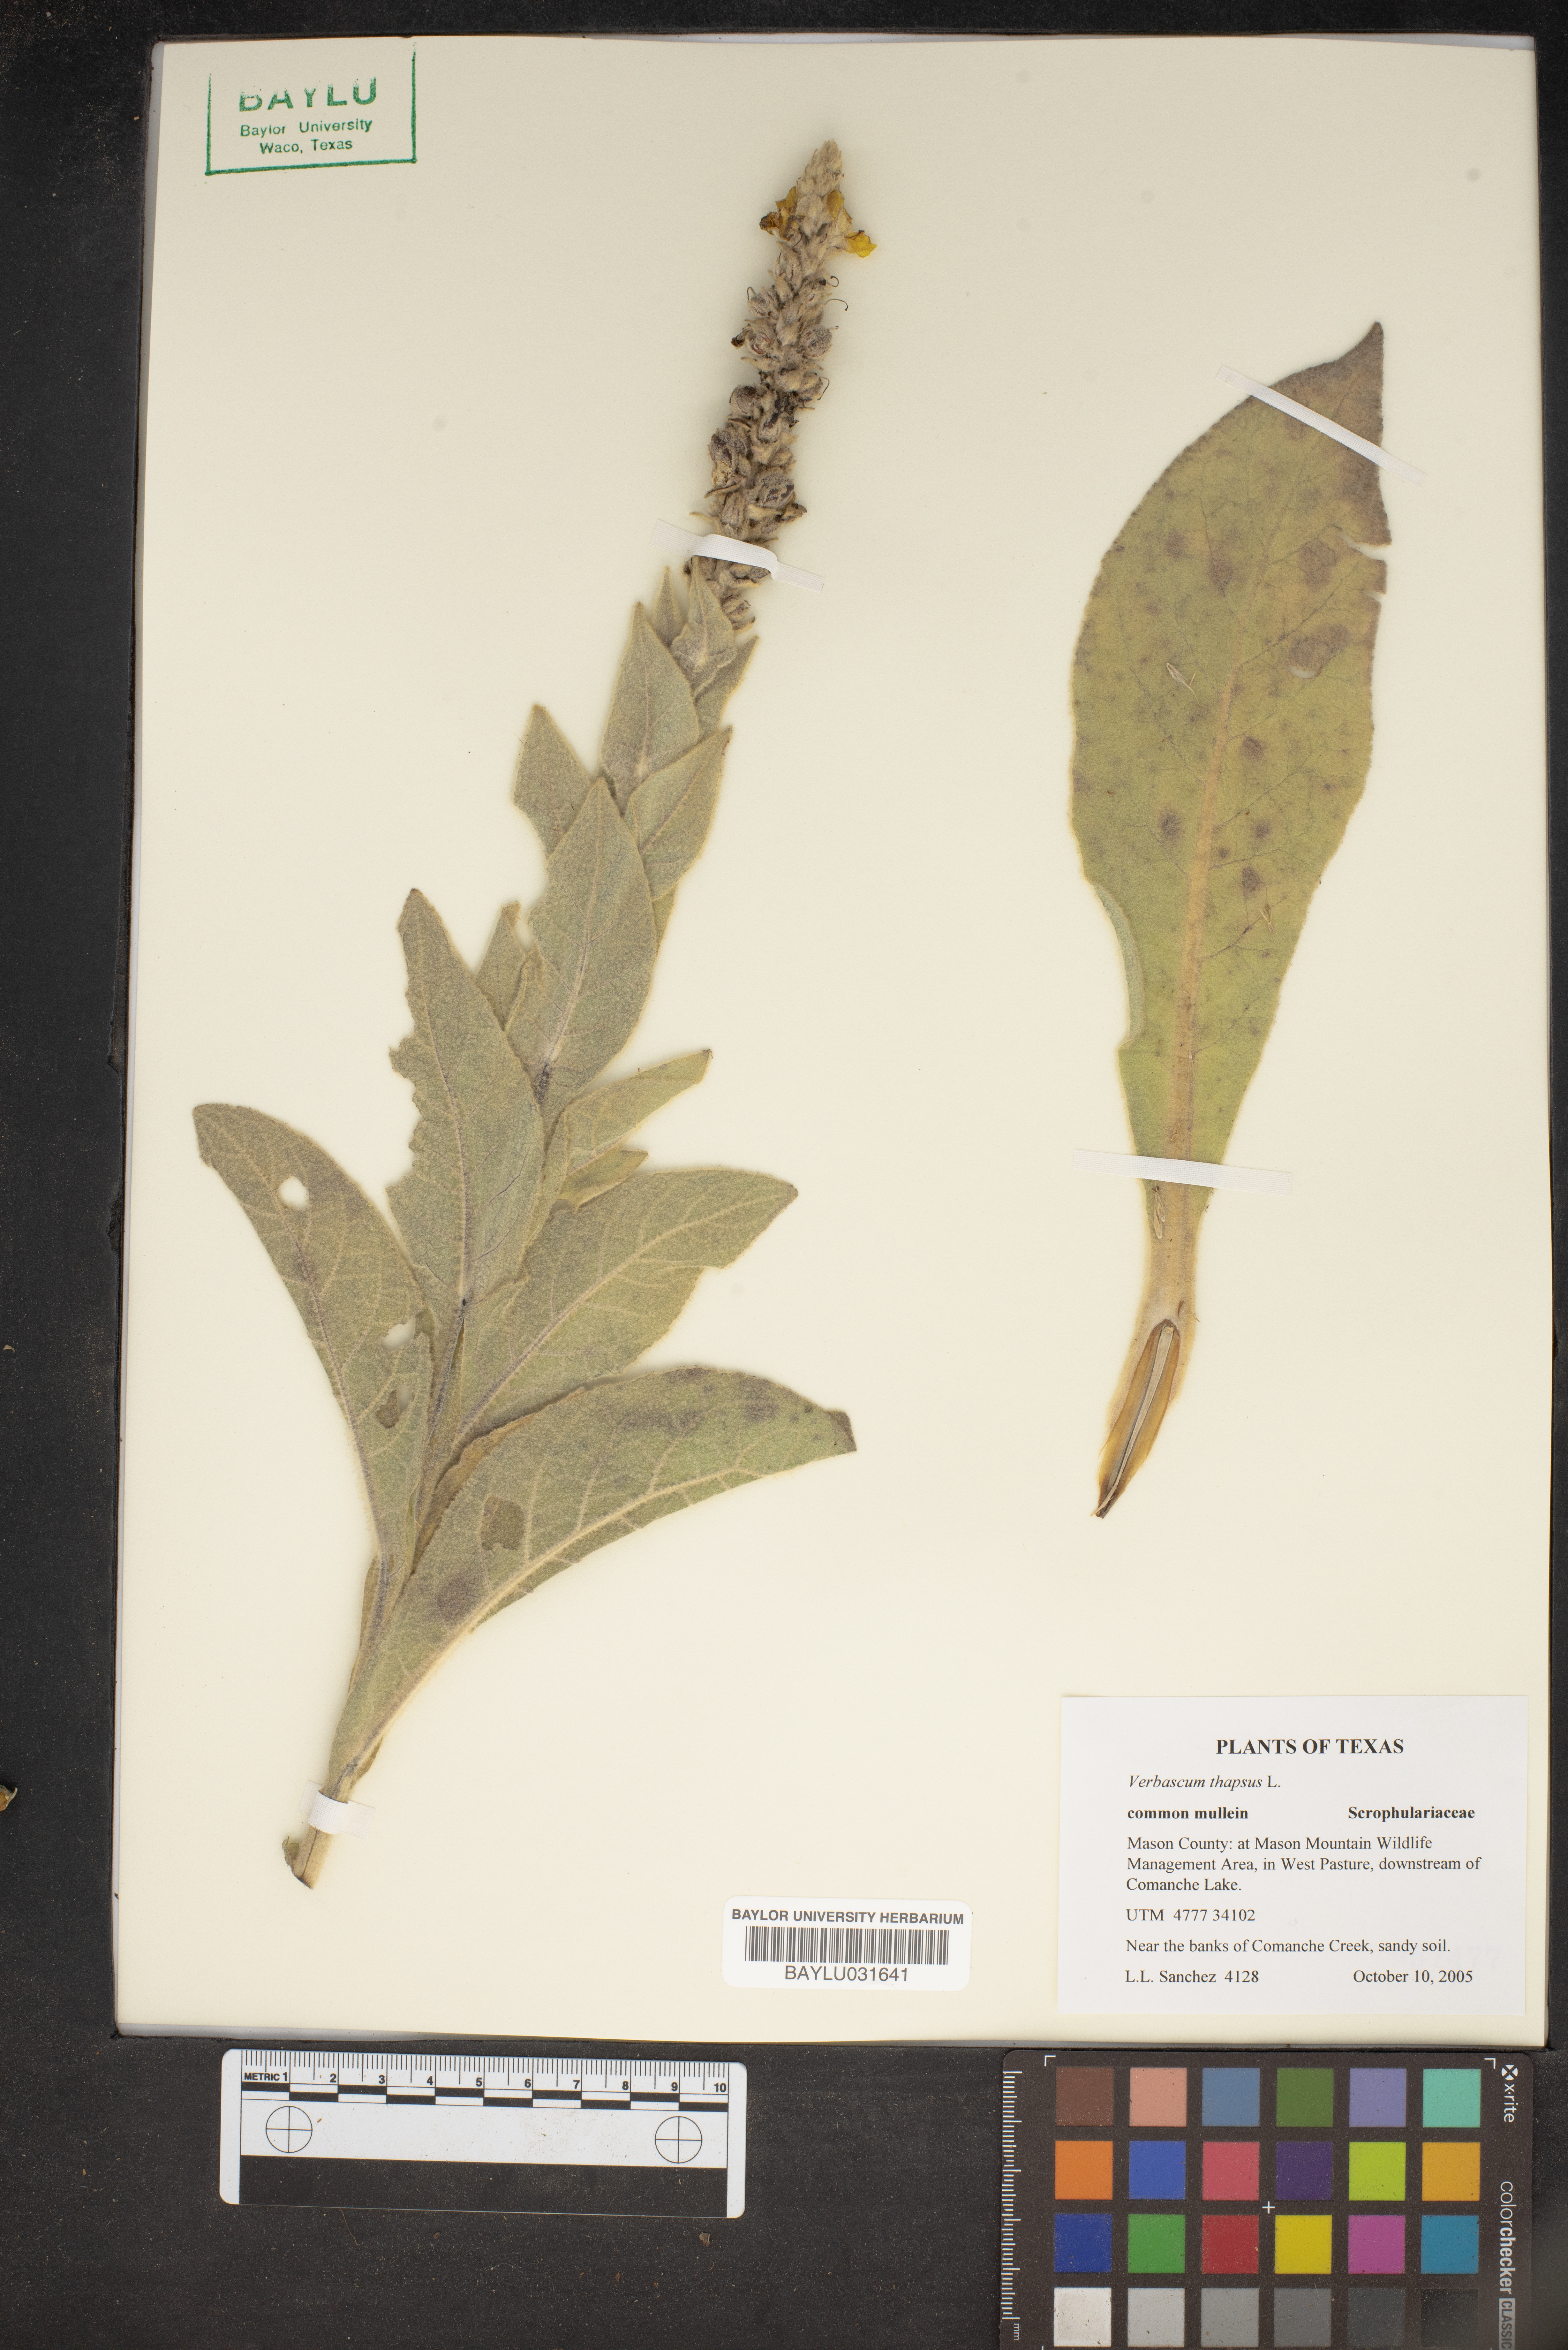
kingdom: Plantae
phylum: Tracheophyta
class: Magnoliopsida
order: Lamiales
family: Scrophulariaceae
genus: Verbascum
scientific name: Verbascum thapsus
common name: Common mullein
